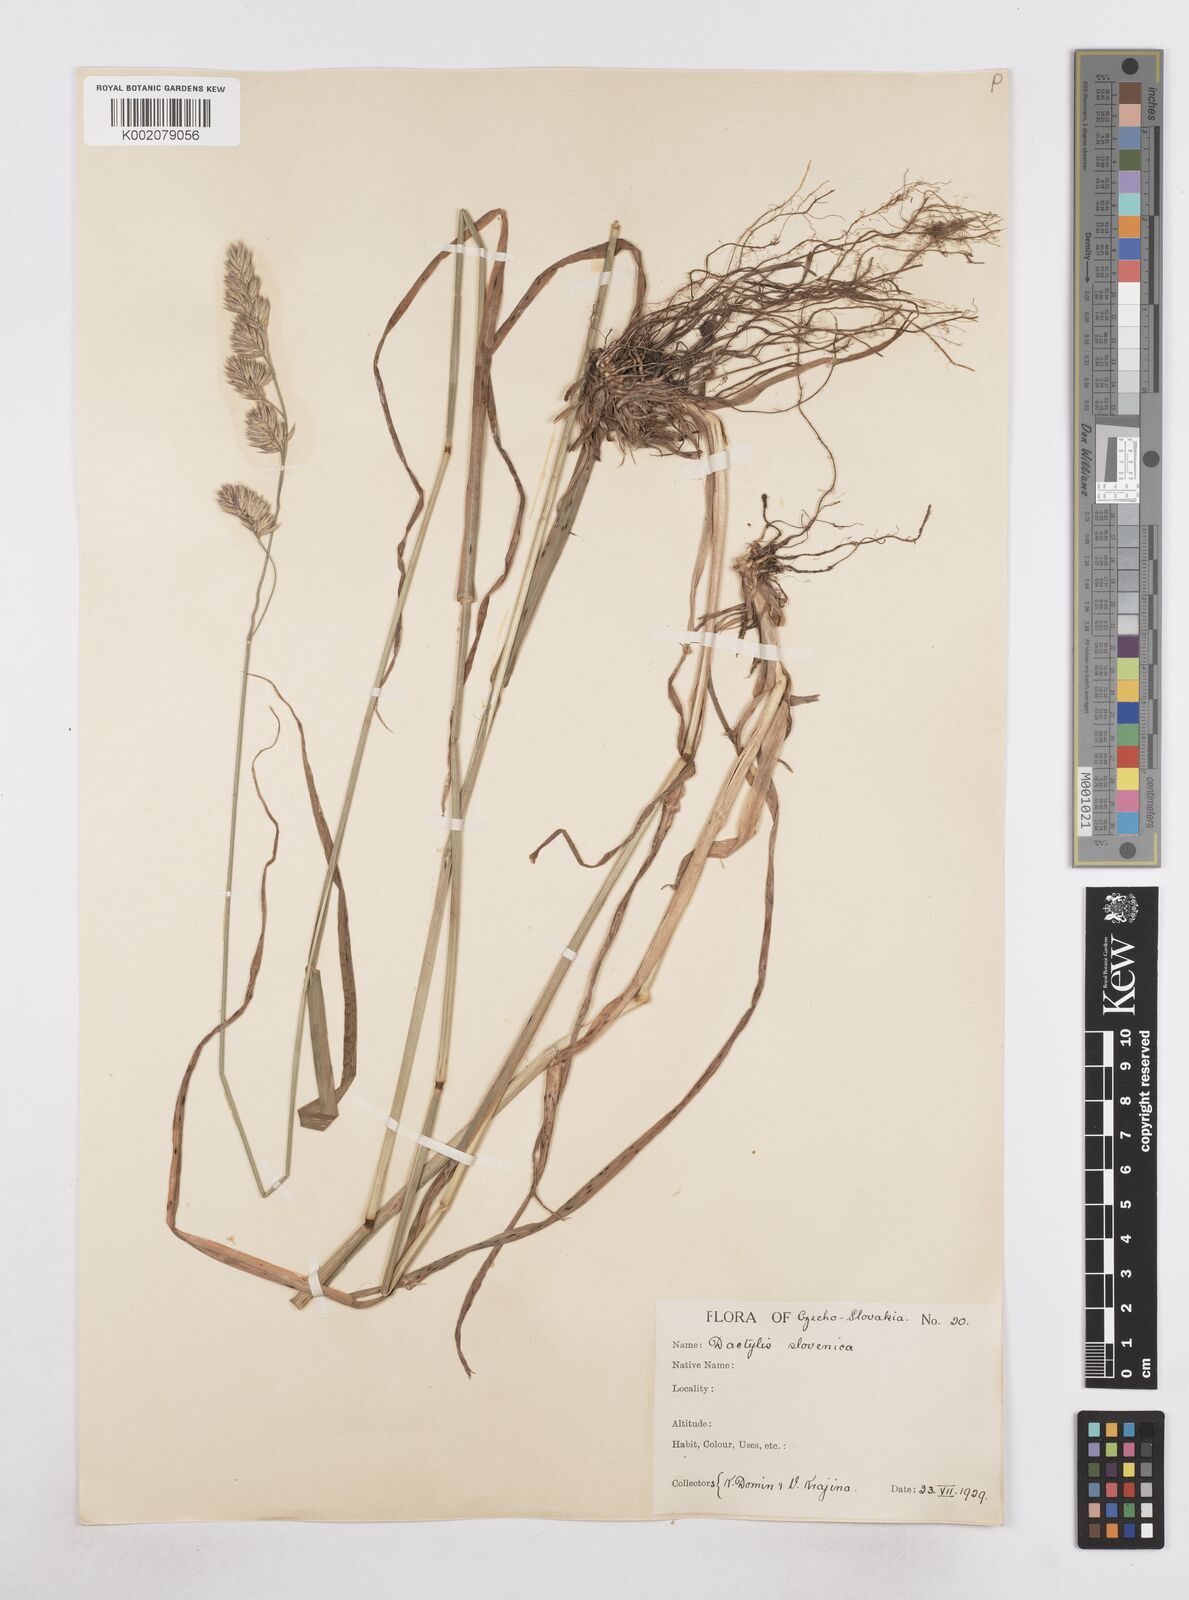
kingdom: Plantae
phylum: Tracheophyta
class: Liliopsida
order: Poales
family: Poaceae
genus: Dactylis
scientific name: Dactylis glomerata
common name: Orchardgrass
